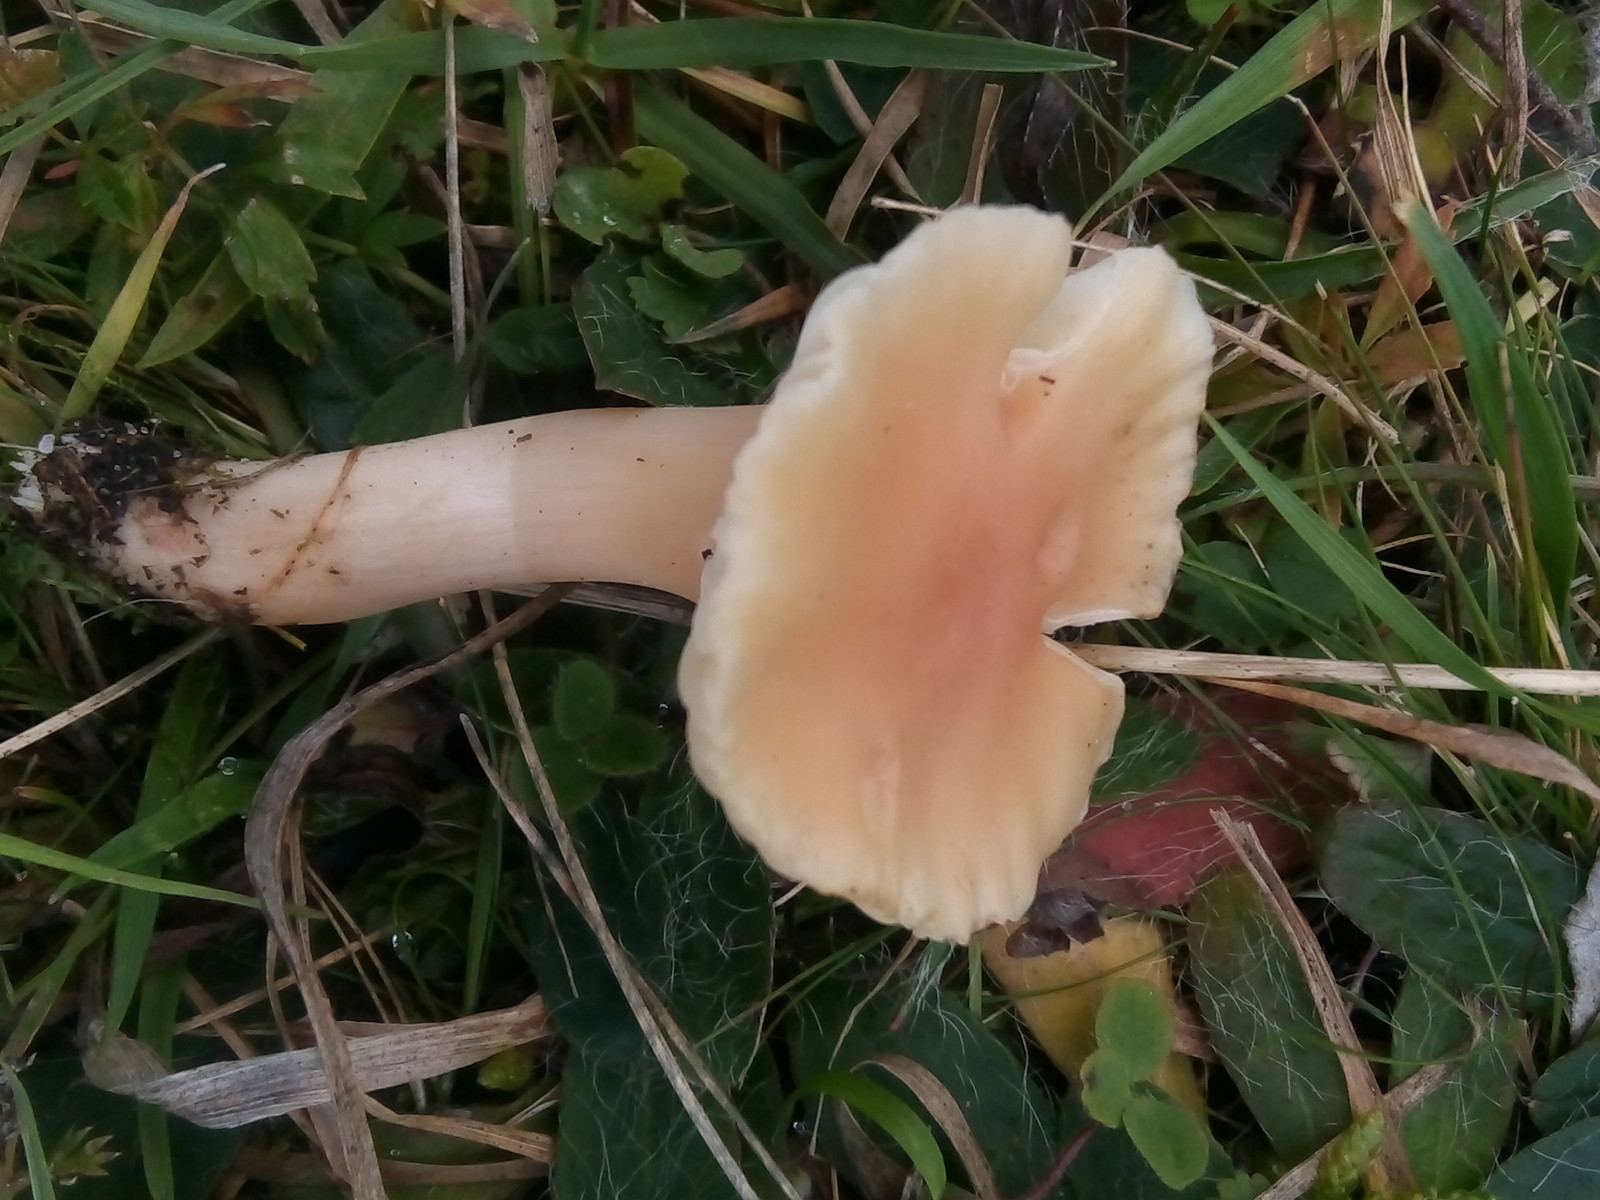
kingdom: Fungi
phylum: Basidiomycota
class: Agaricomycetes
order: Agaricales
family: Hygrophoraceae
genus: Cuphophyllus
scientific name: Cuphophyllus pratensis
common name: eng-vokshat
